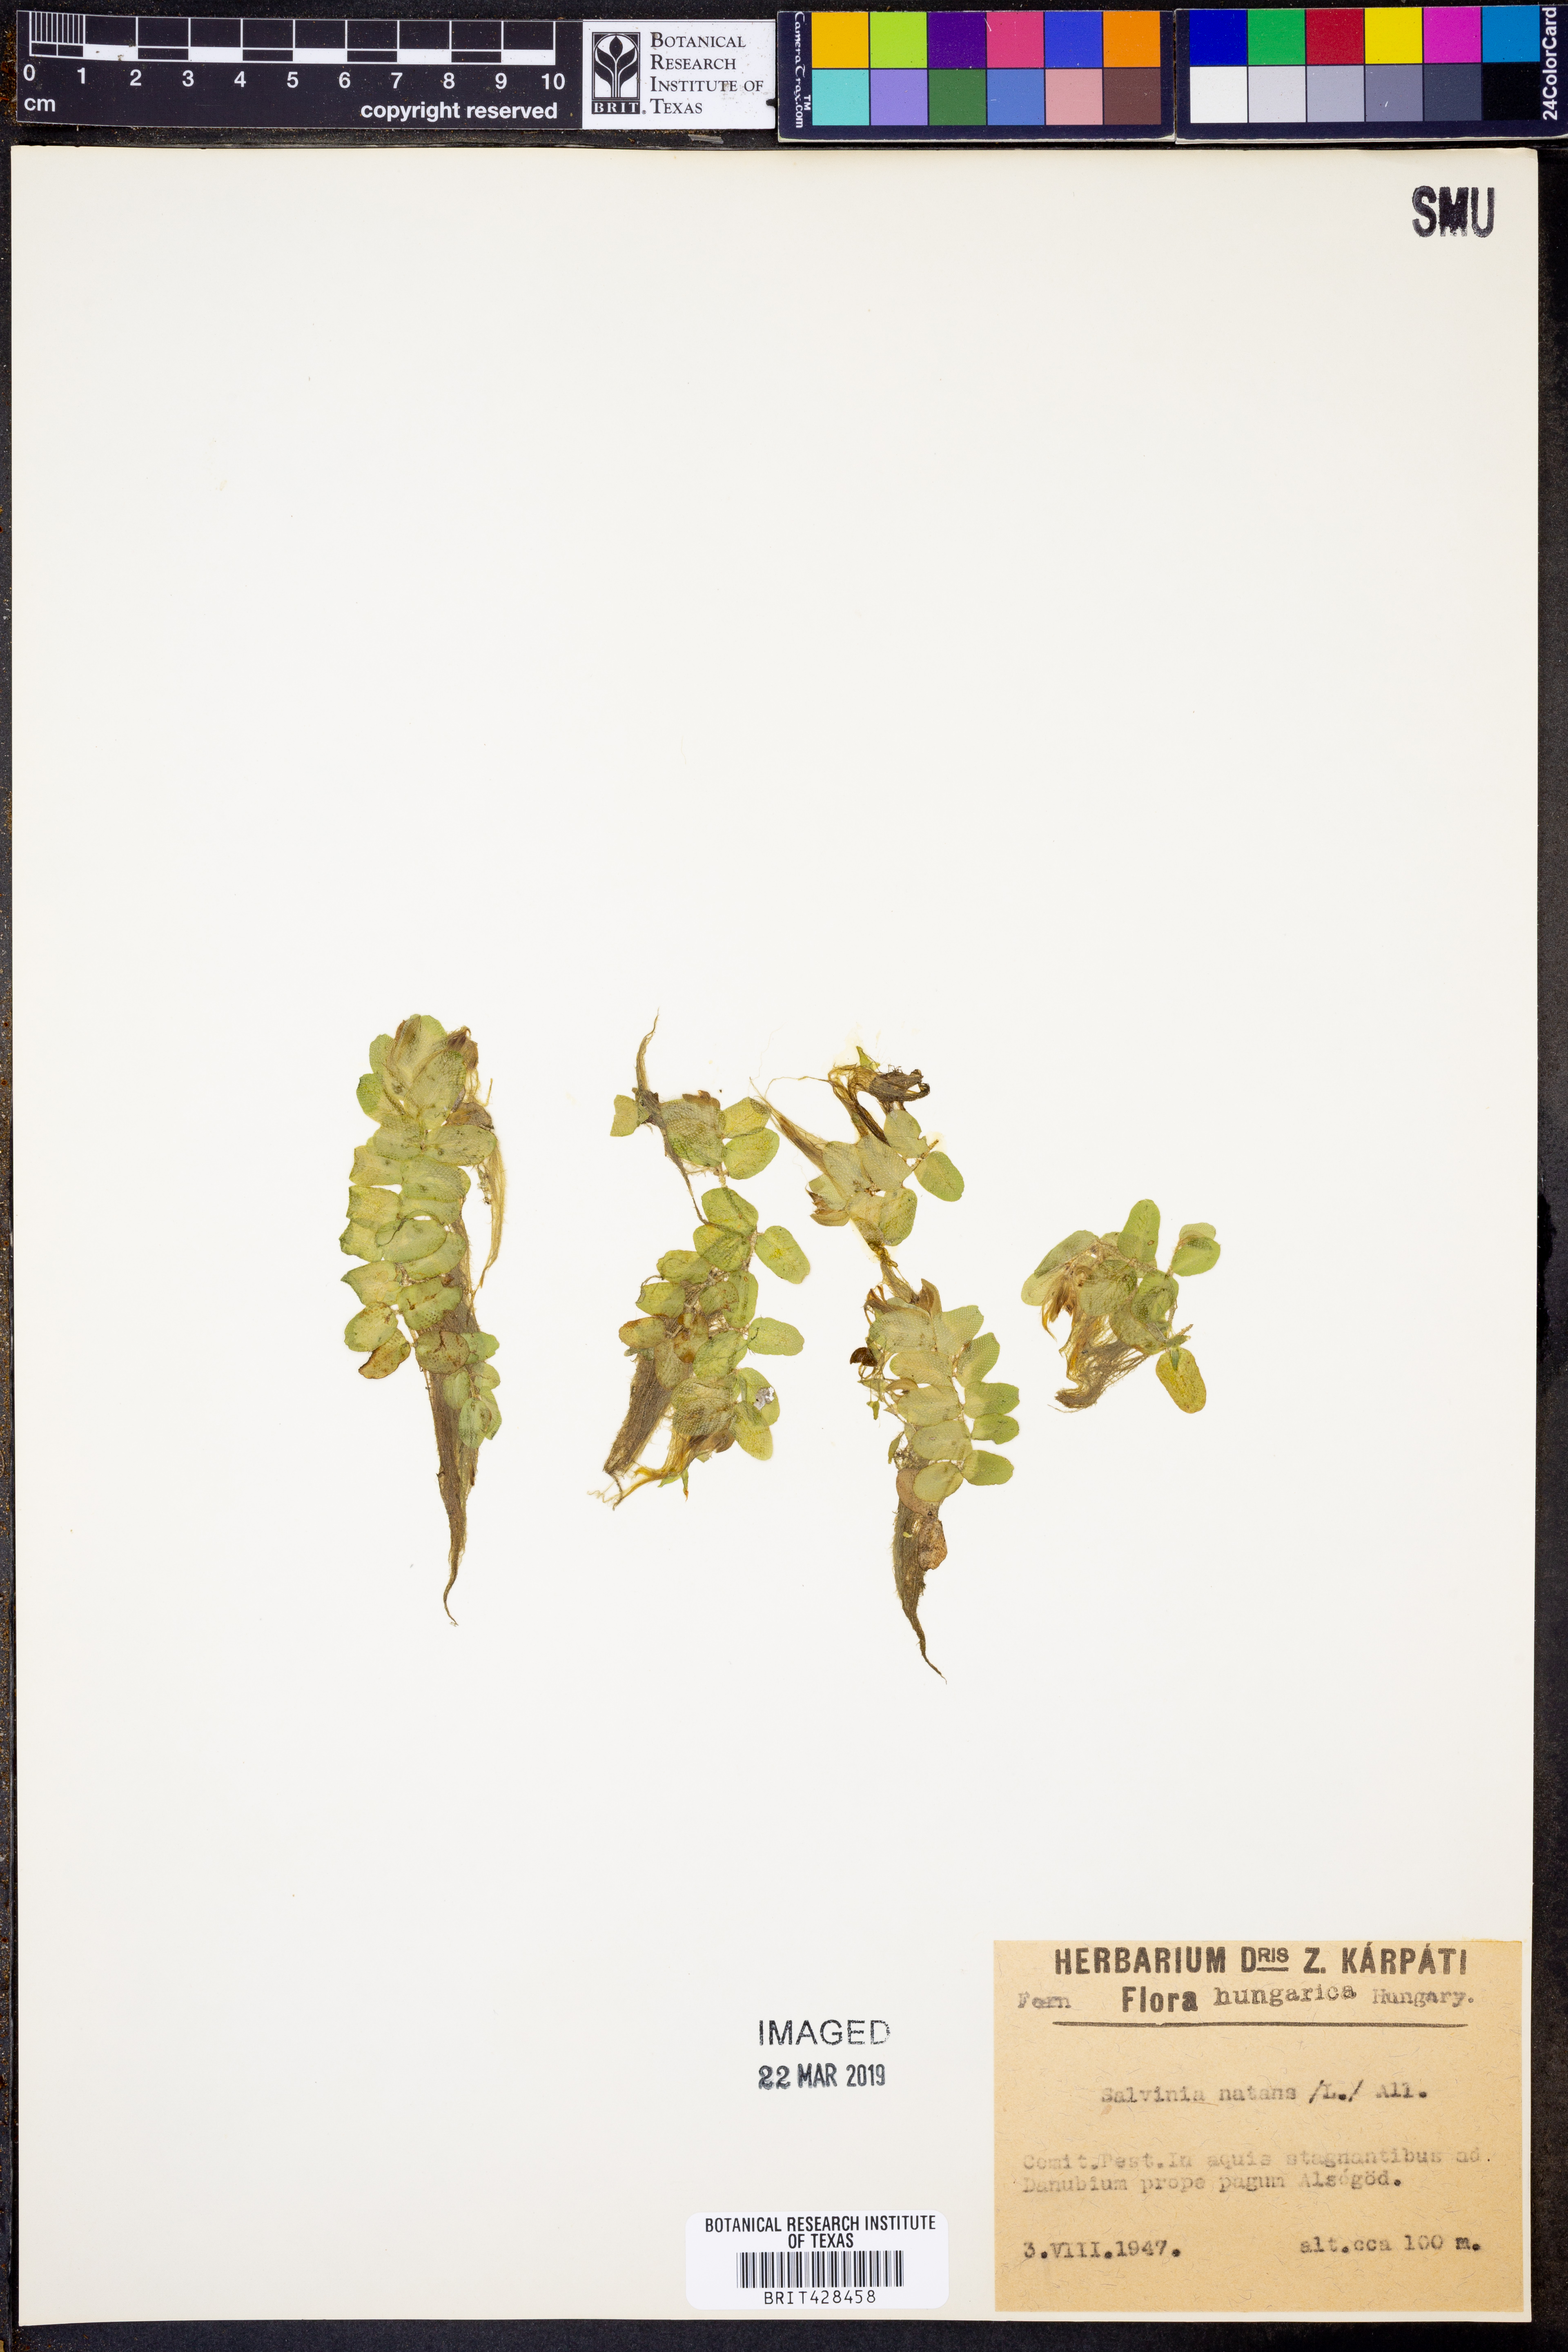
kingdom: Plantae
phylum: Tracheophyta
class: Polypodiopsida
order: Salviniales
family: Salviniaceae
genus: Salvinia
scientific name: Salvinia natans
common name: Floating fern
